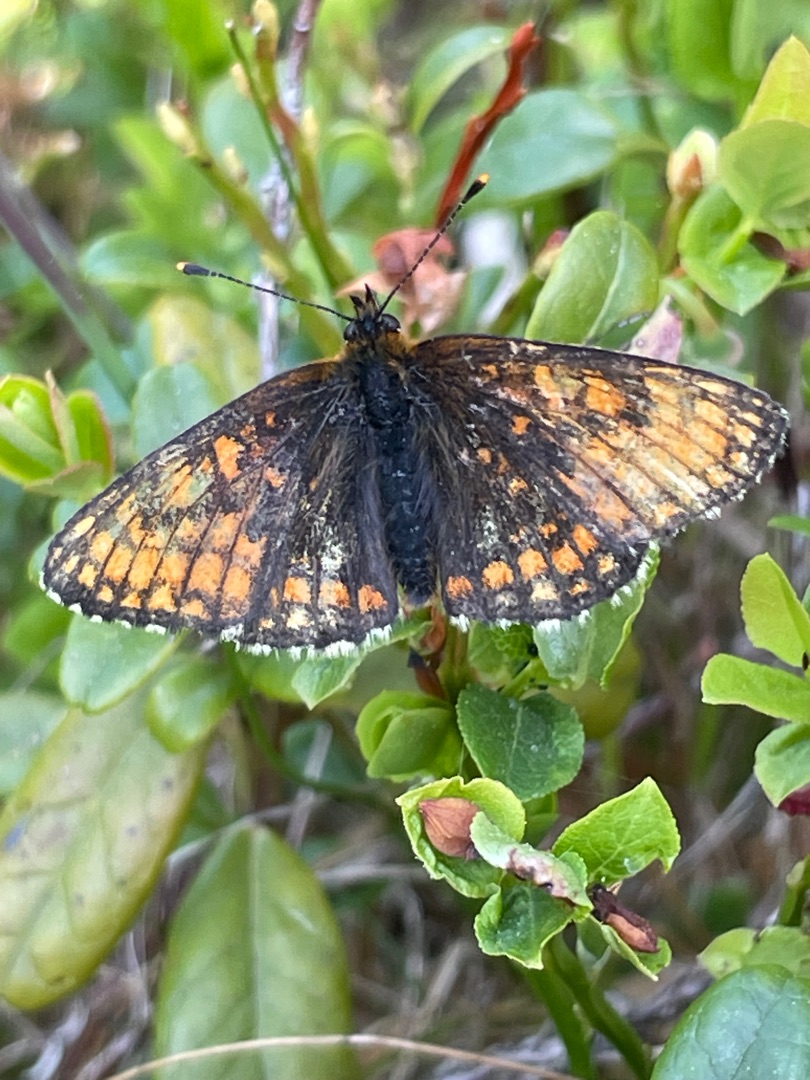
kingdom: Animalia
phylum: Arthropoda
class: Insecta
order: Lepidoptera
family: Nymphalidae
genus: Mellicta
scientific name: Mellicta athalia
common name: Brun pletvinge
